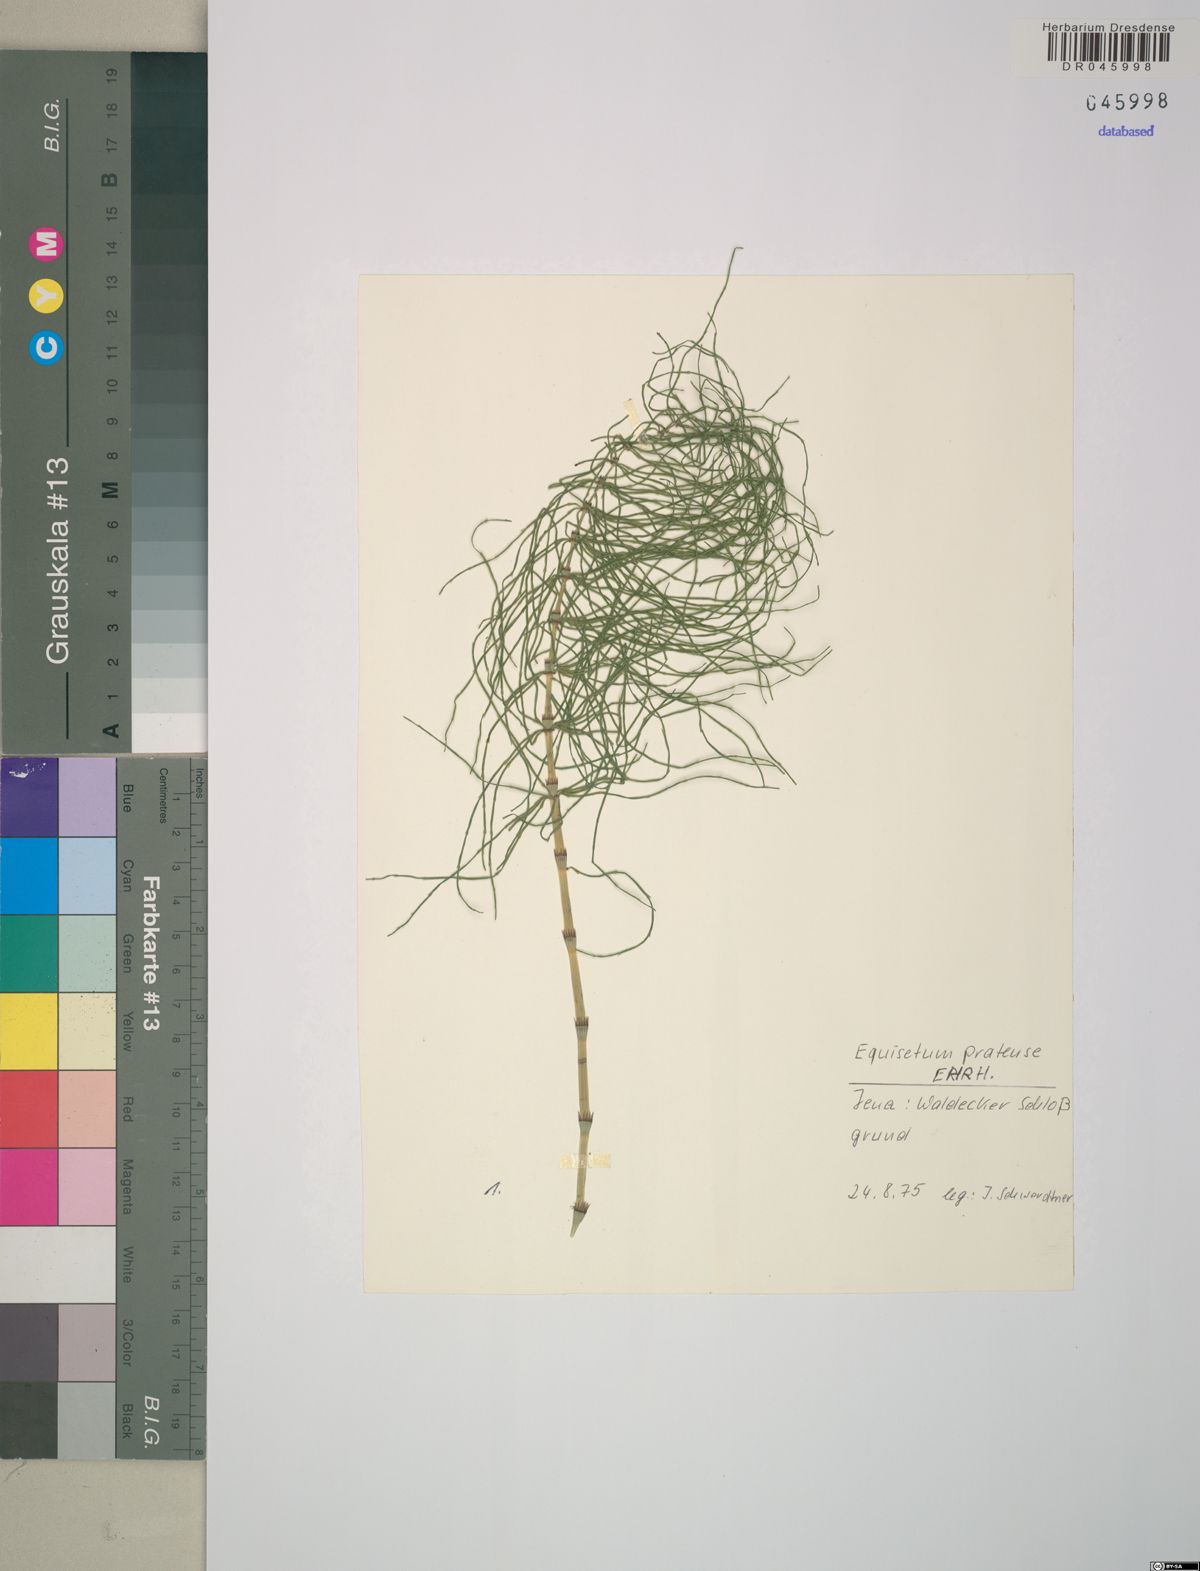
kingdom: Plantae
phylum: Tracheophyta
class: Polypodiopsida
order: Equisetales
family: Equisetaceae
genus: Equisetum
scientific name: Equisetum pratense
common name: Meadow horsetail
